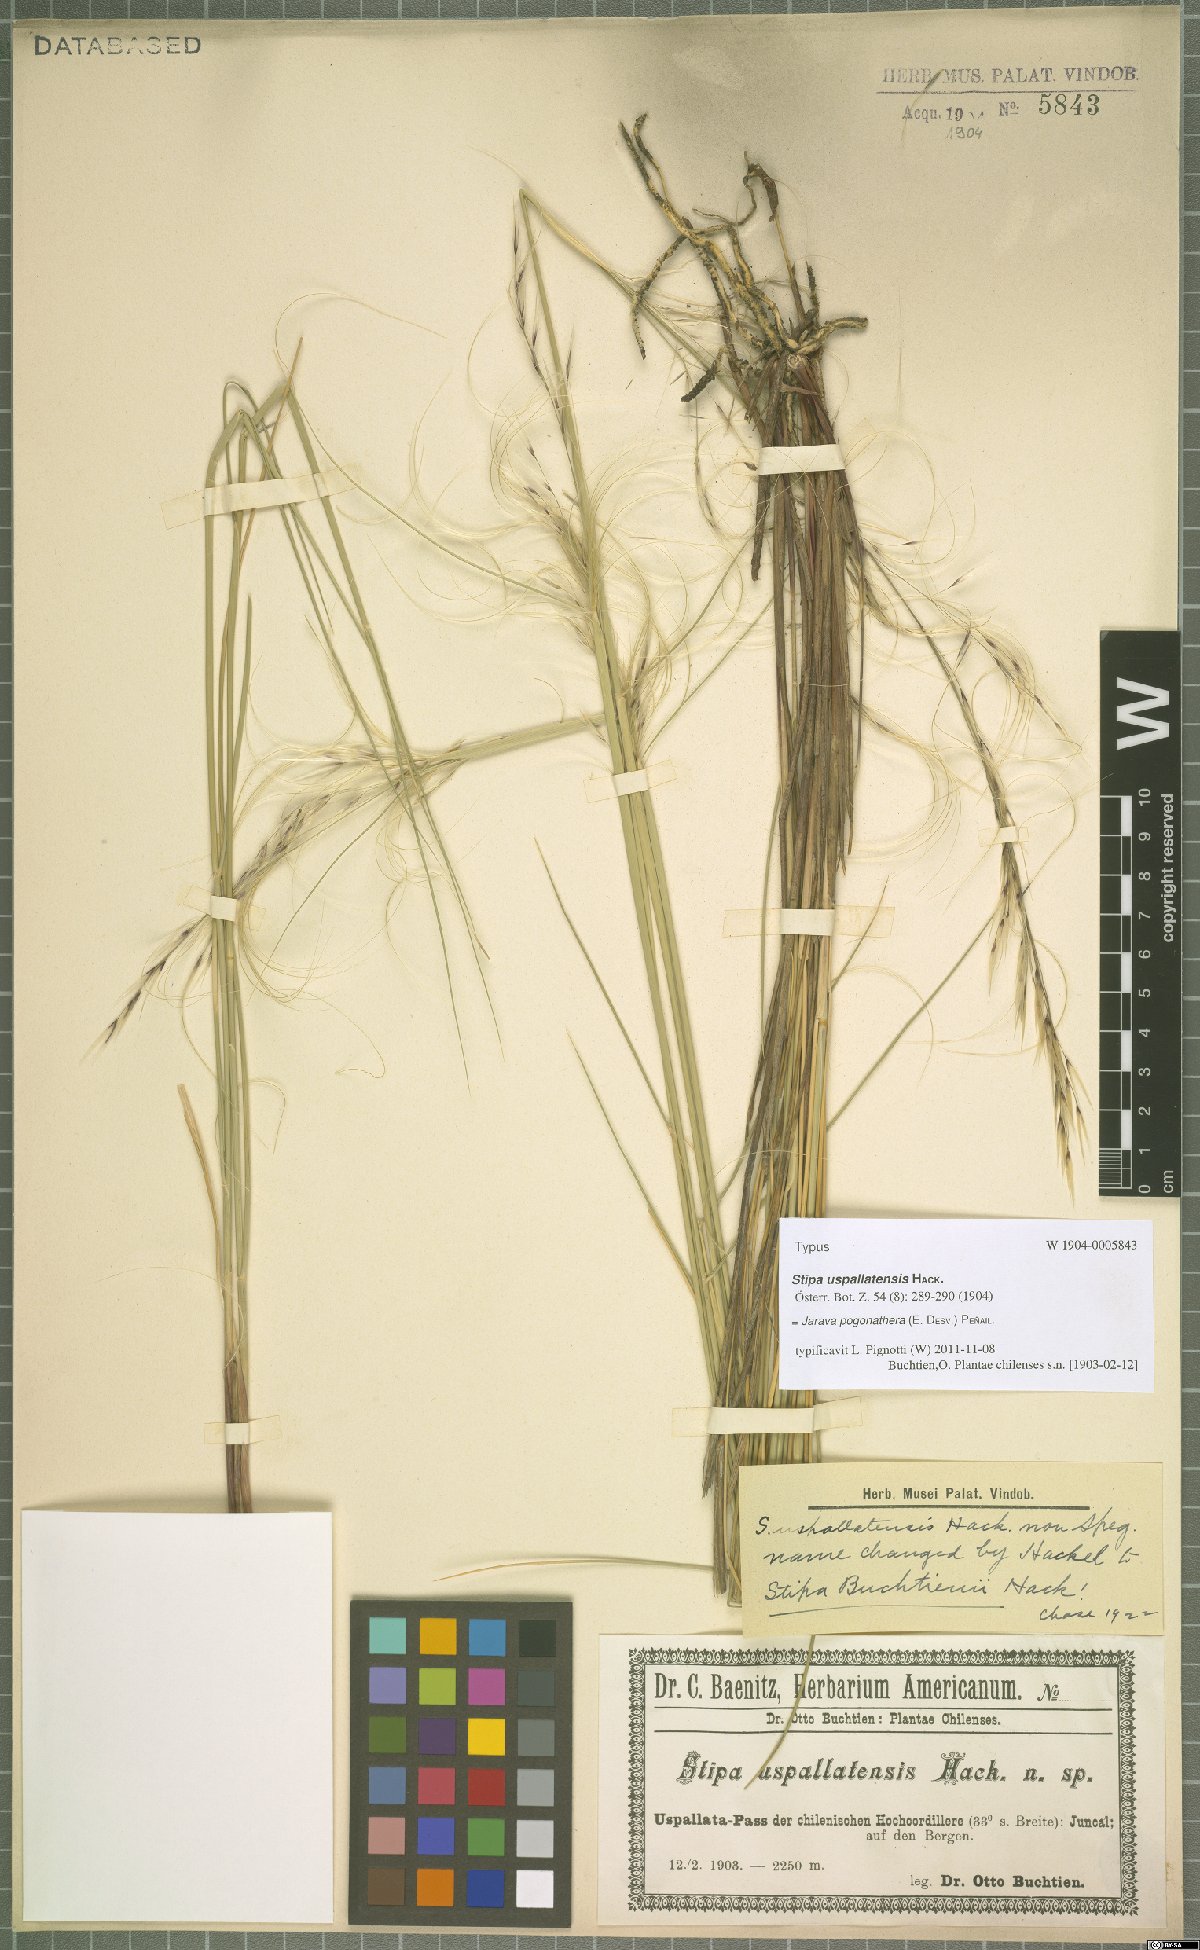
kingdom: Plantae
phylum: Tracheophyta
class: Liliopsida
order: Poales
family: Poaceae
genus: Stipa
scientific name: Stipa pogonathera
